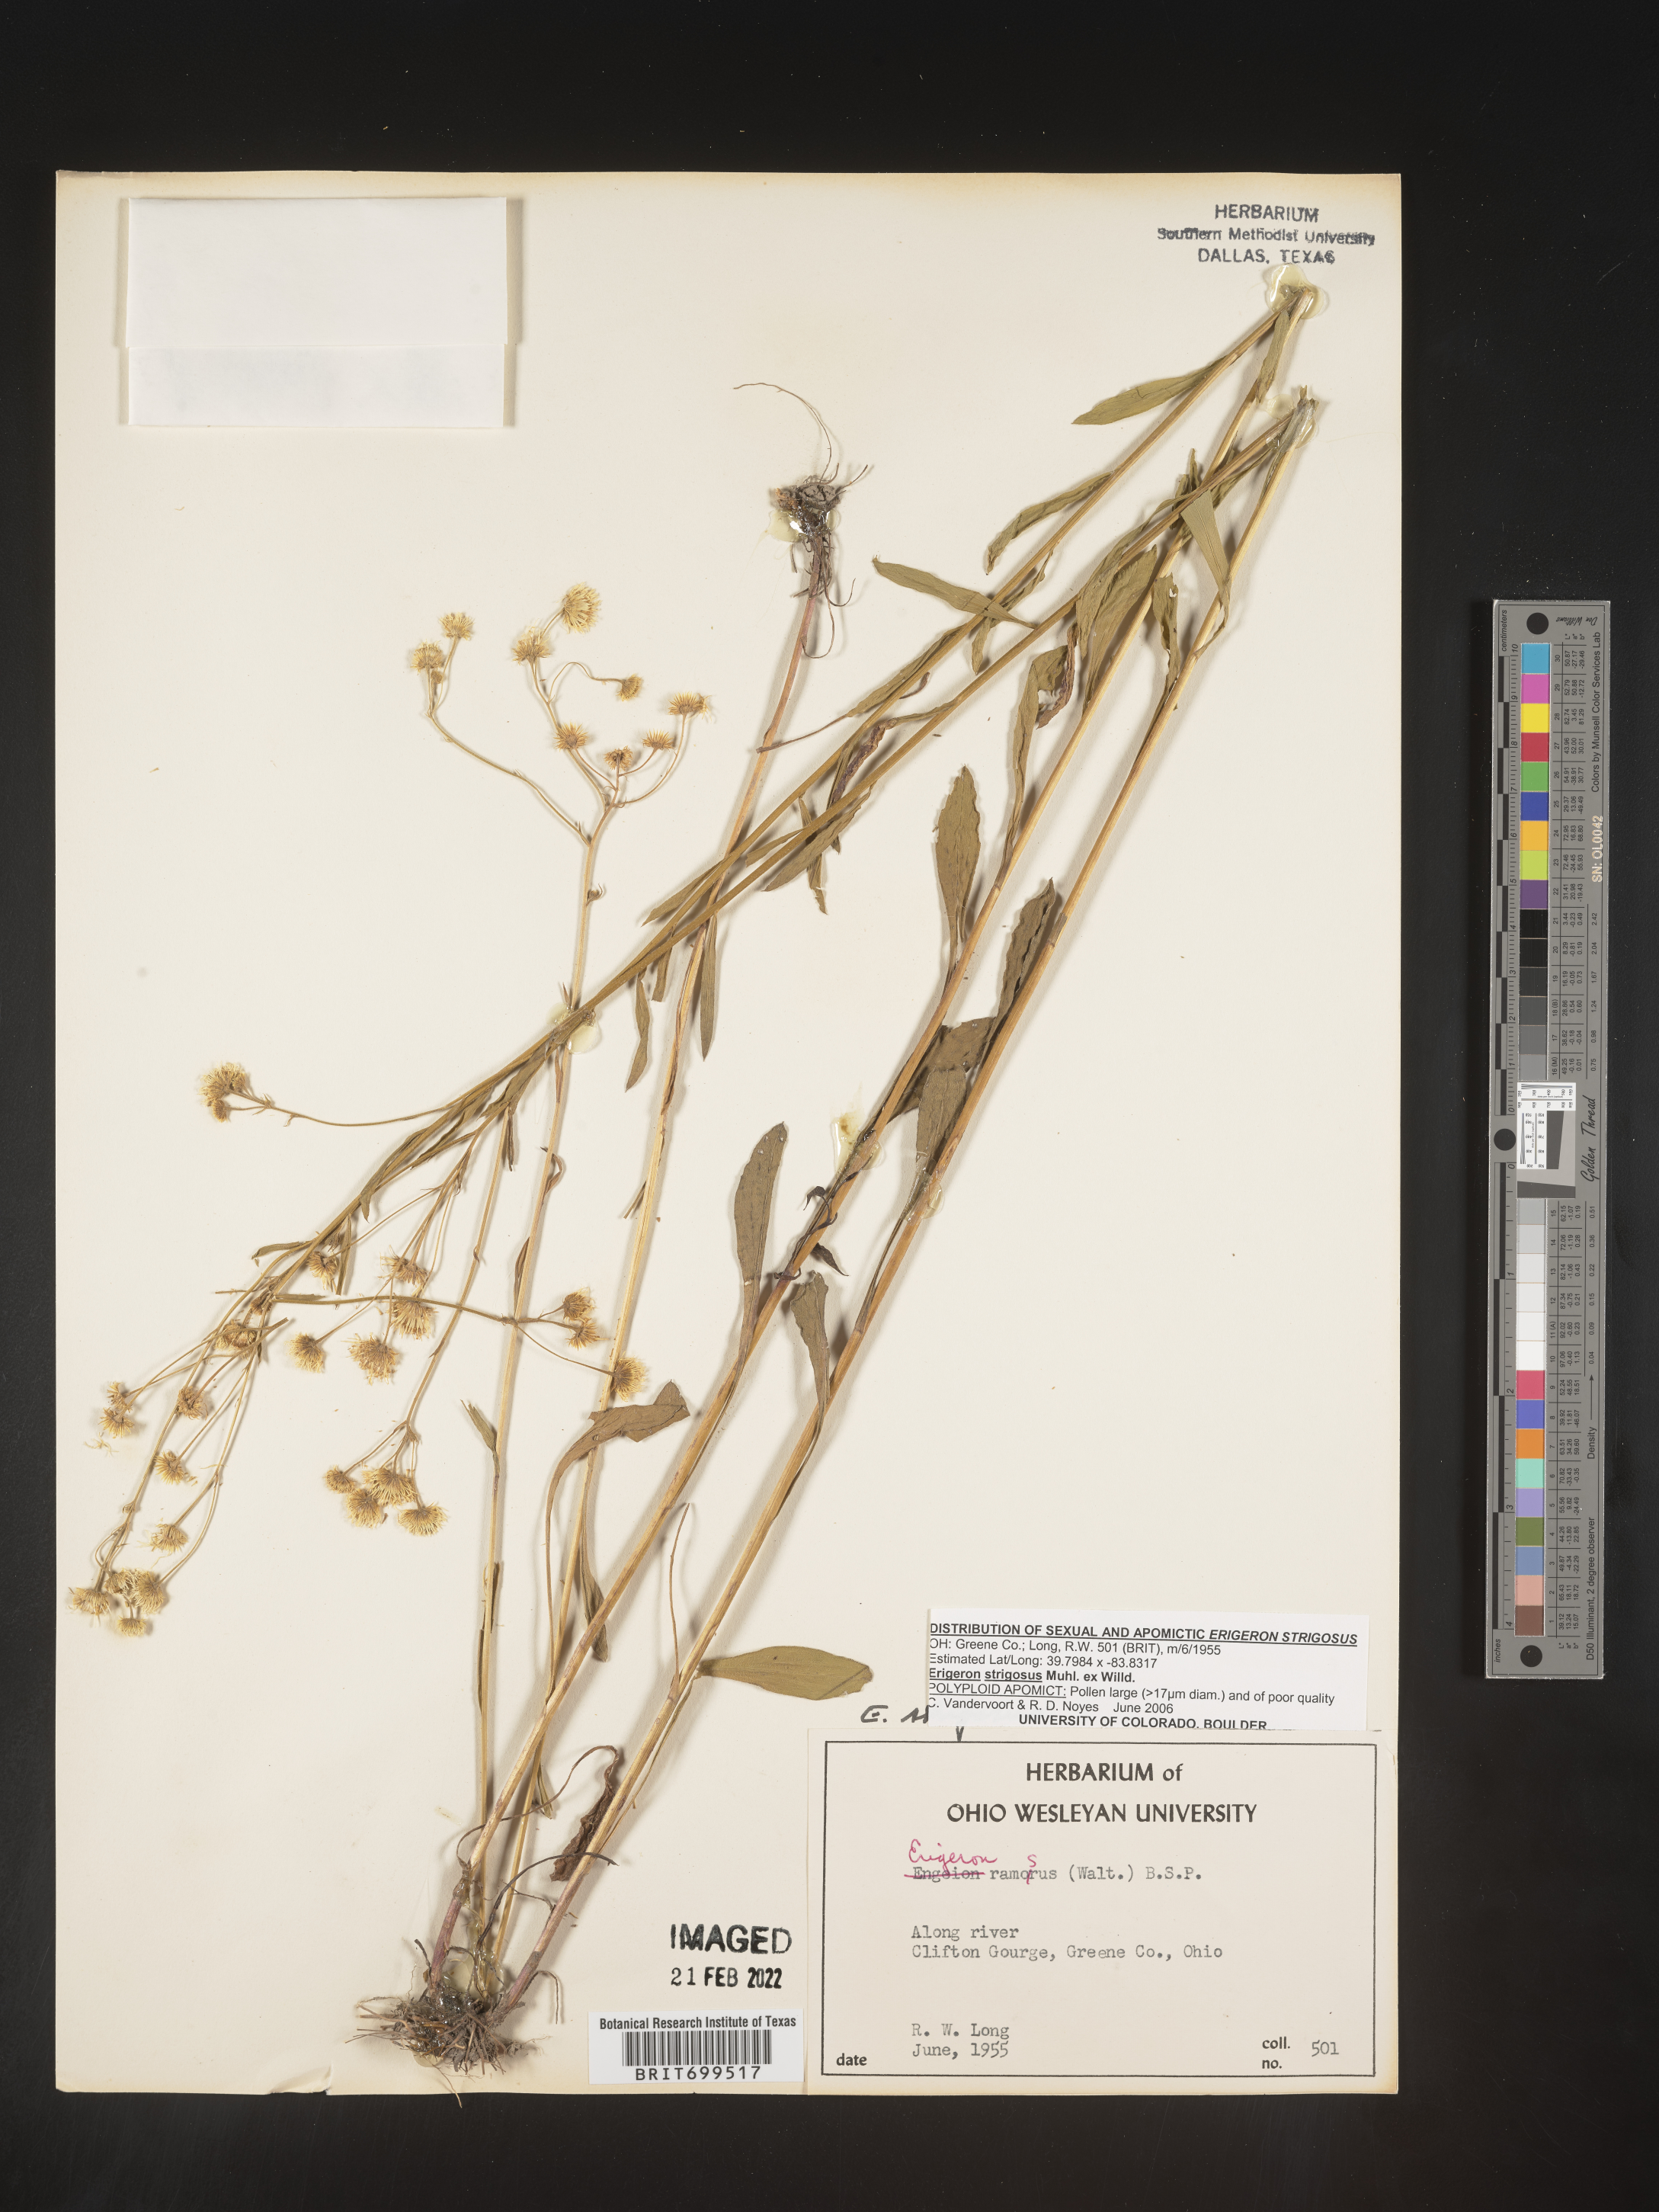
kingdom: Plantae
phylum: Tracheophyta
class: Magnoliopsida
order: Asterales
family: Asteraceae
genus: Erigeron
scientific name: Erigeron strigosus
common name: Common eastern fleabane
